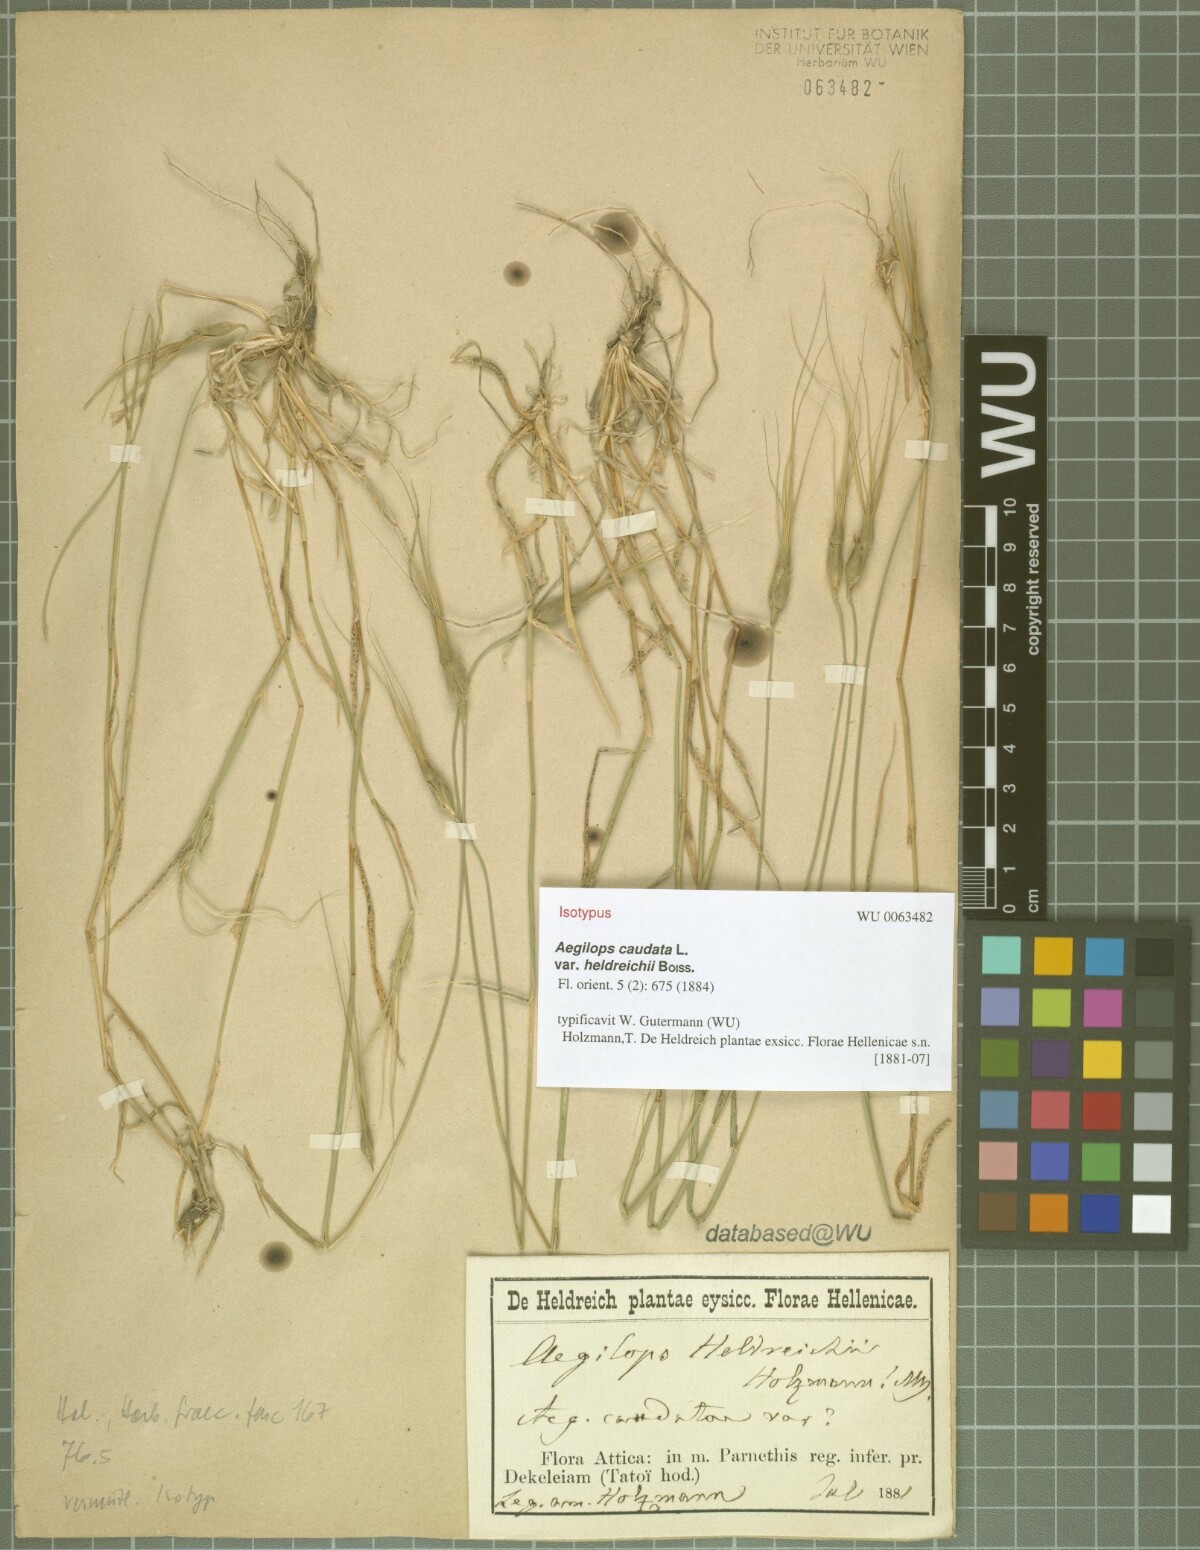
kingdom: Plantae
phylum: Tracheophyta
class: Liliopsida
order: Poales
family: Poaceae
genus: Aegilops
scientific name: Aegilops comosa
